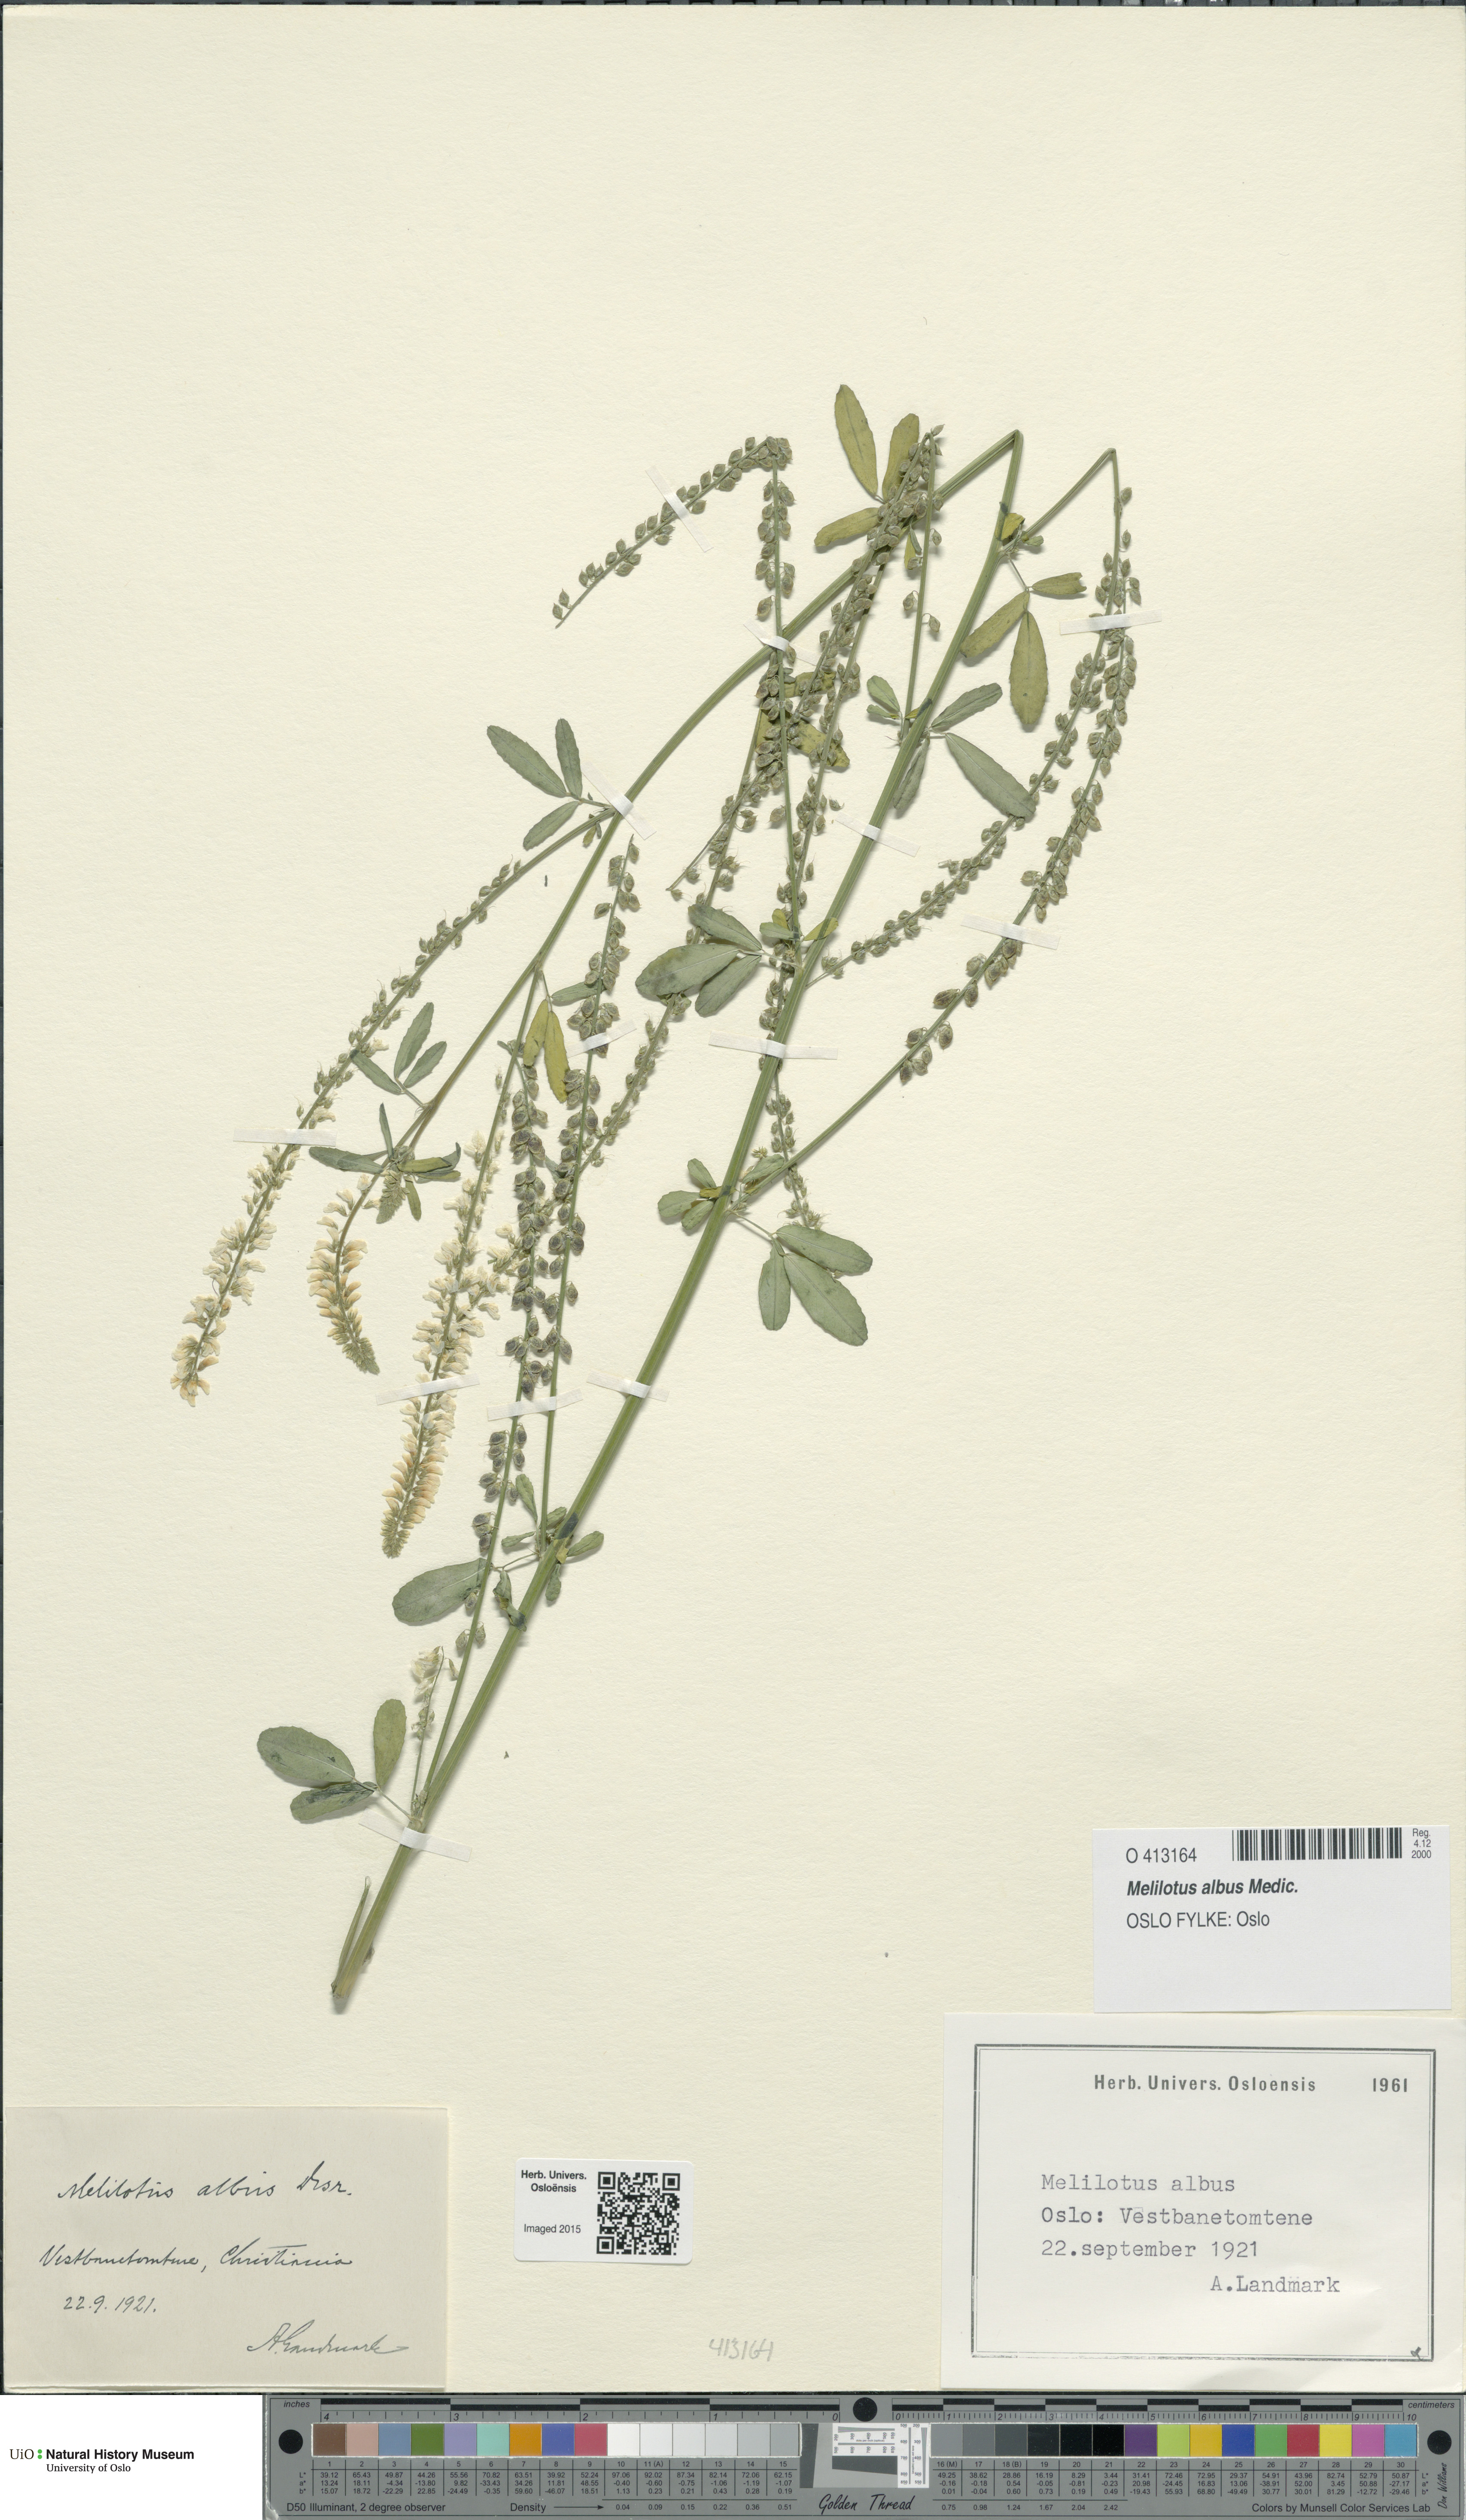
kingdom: Plantae
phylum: Tracheophyta
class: Magnoliopsida
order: Fabales
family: Fabaceae
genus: Melilotus
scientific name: Melilotus albus
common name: White melilot
